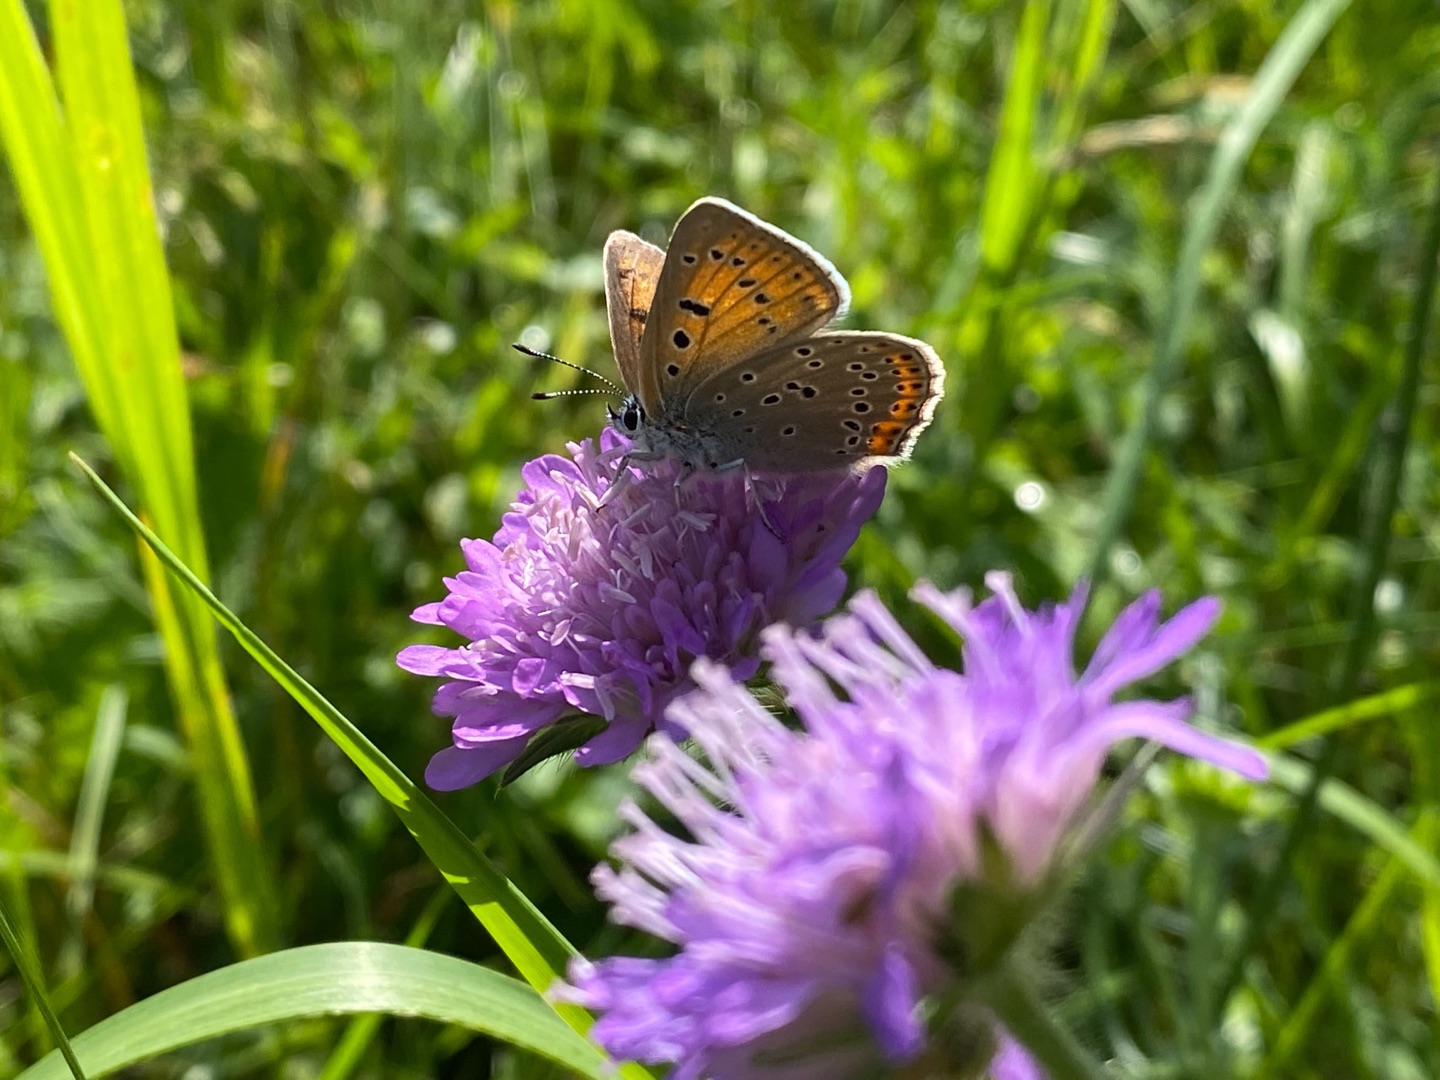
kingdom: Animalia
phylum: Arthropoda
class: Insecta
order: Lepidoptera
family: Lycaenidae
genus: Palaeochrysophanus
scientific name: Palaeochrysophanus hippothoe
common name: Violetrandet ildfugl
